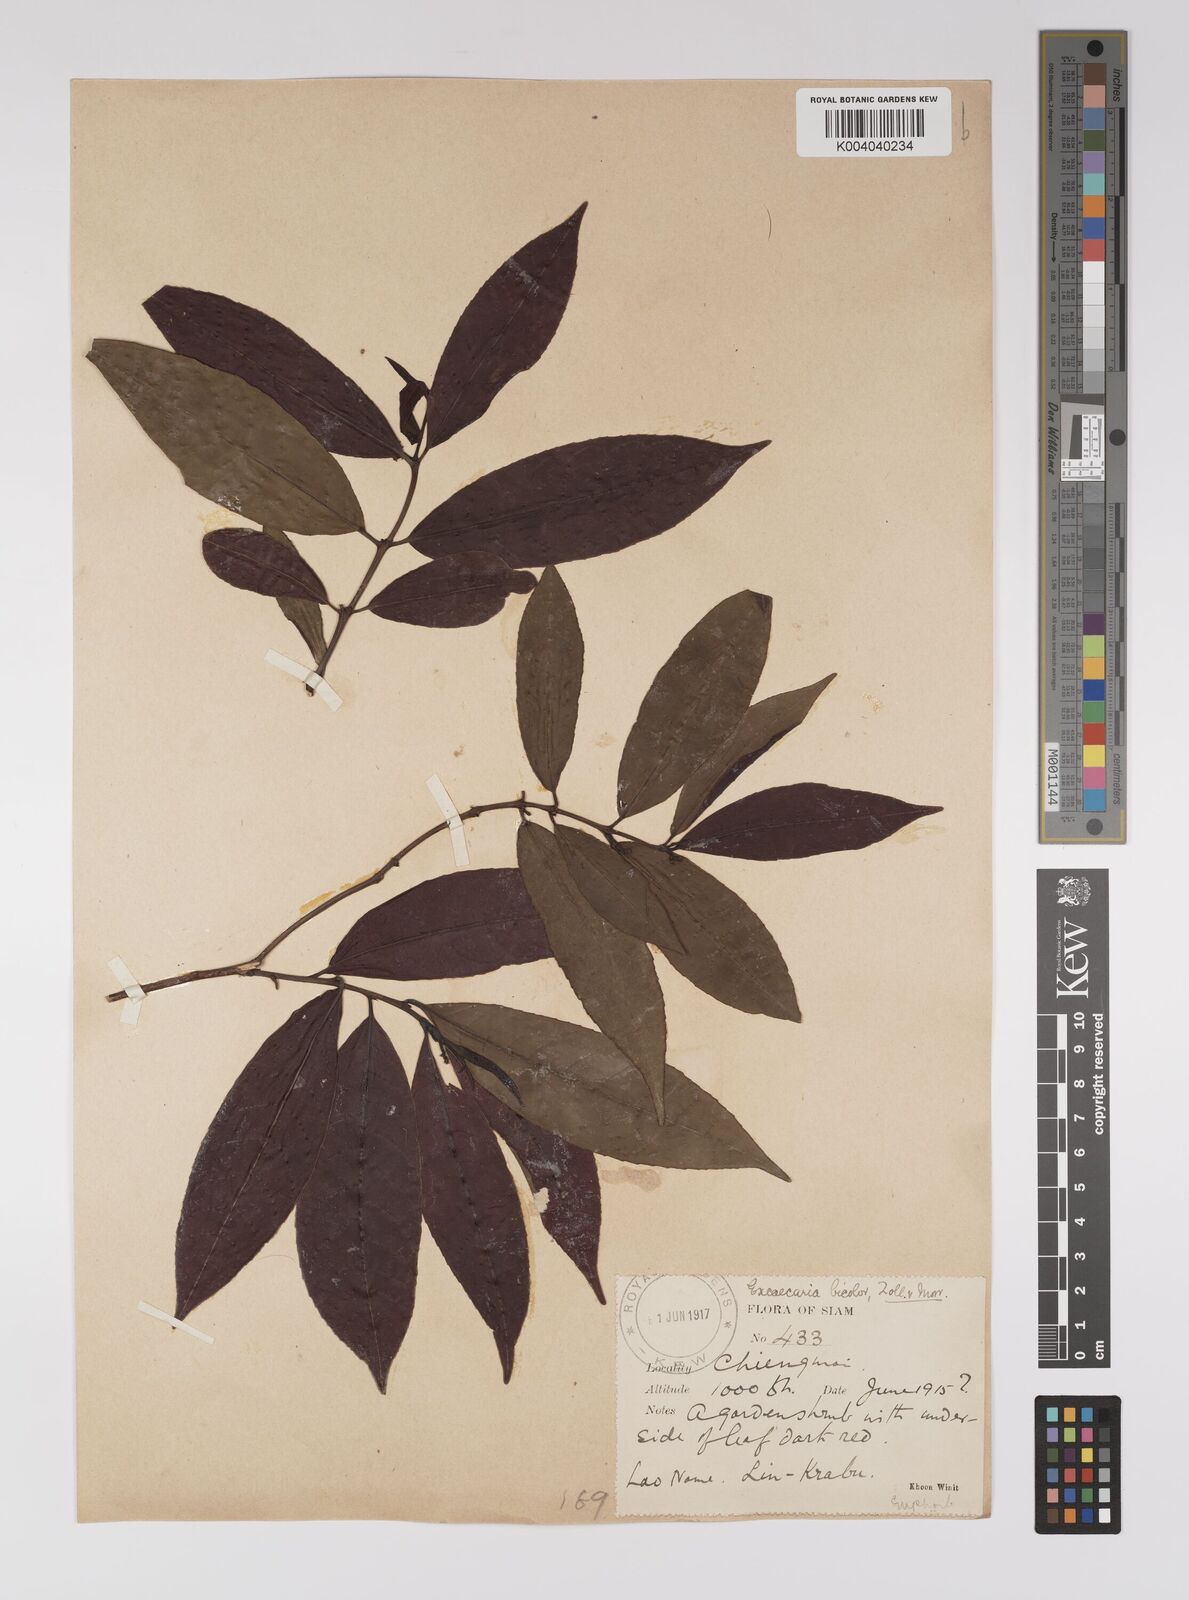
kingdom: Plantae
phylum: Tracheophyta
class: Magnoliopsida
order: Malpighiales
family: Euphorbiaceae
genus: Excoecaria
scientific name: Excoecaria cochinchinensis
